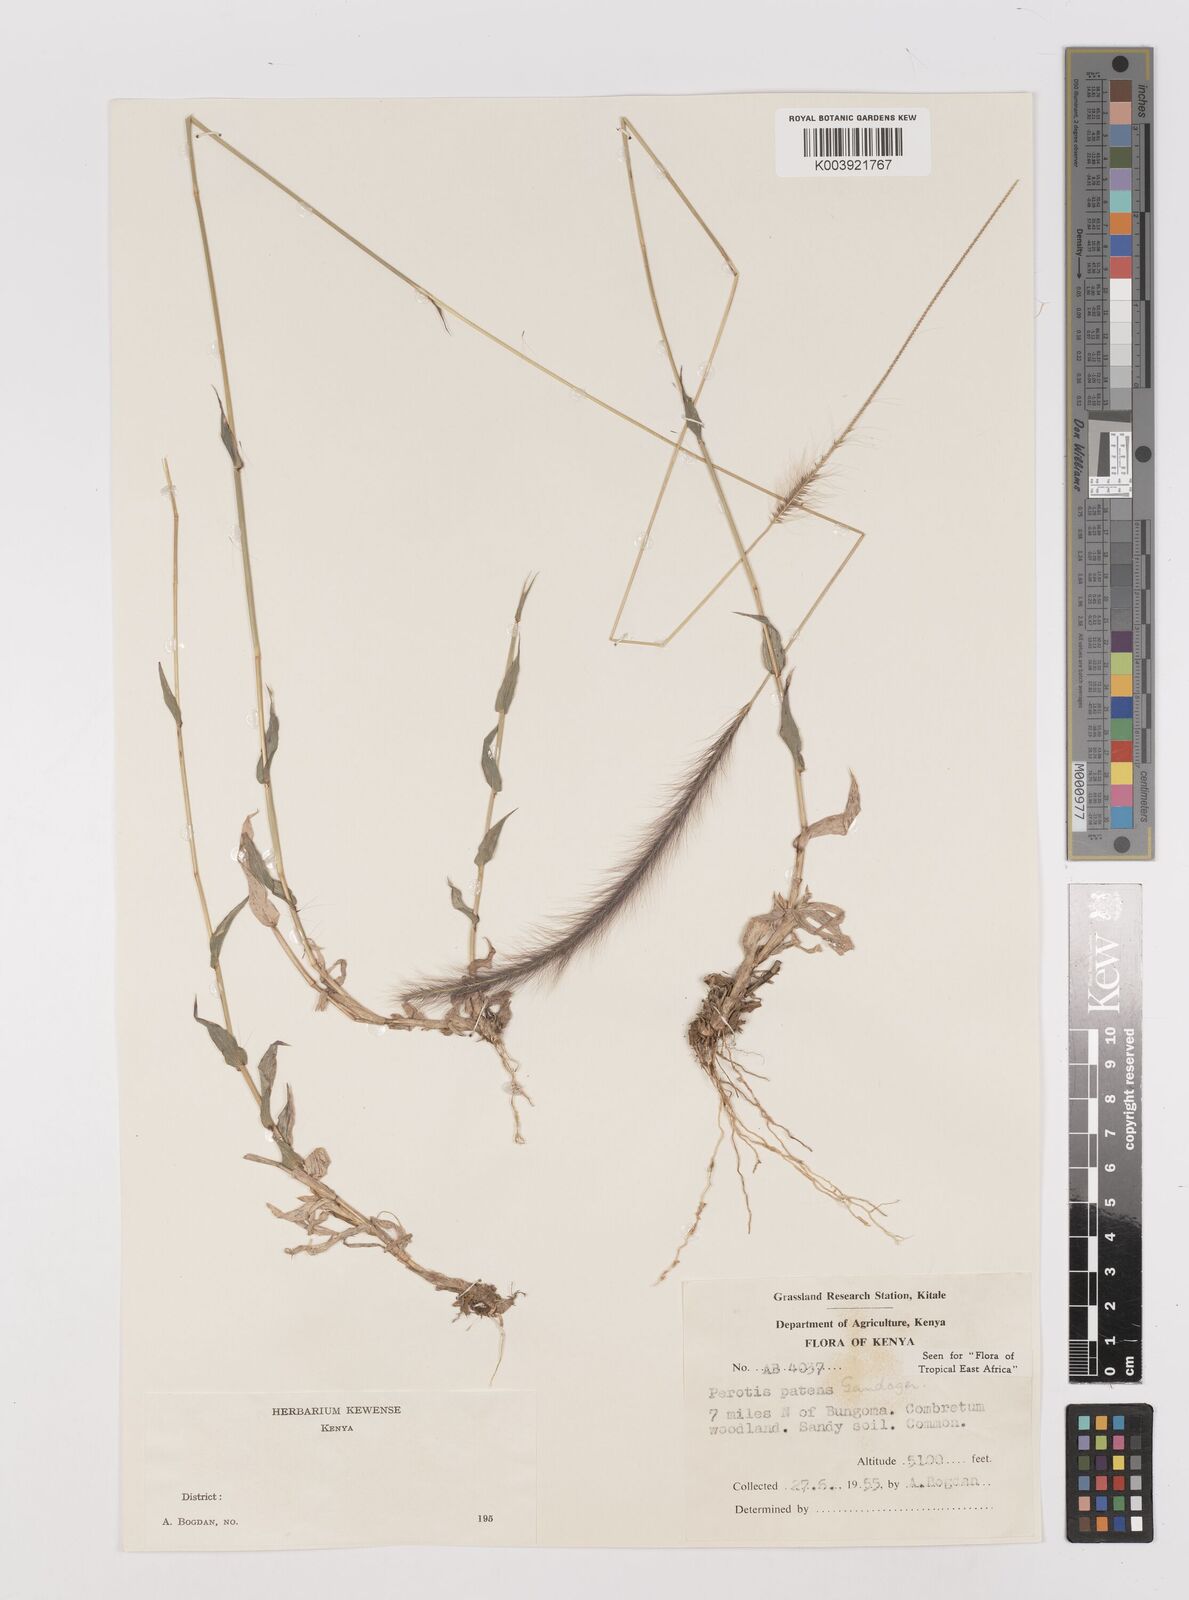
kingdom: Plantae
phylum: Tracheophyta
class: Liliopsida
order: Poales
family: Poaceae
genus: Perotis
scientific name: Perotis patens
